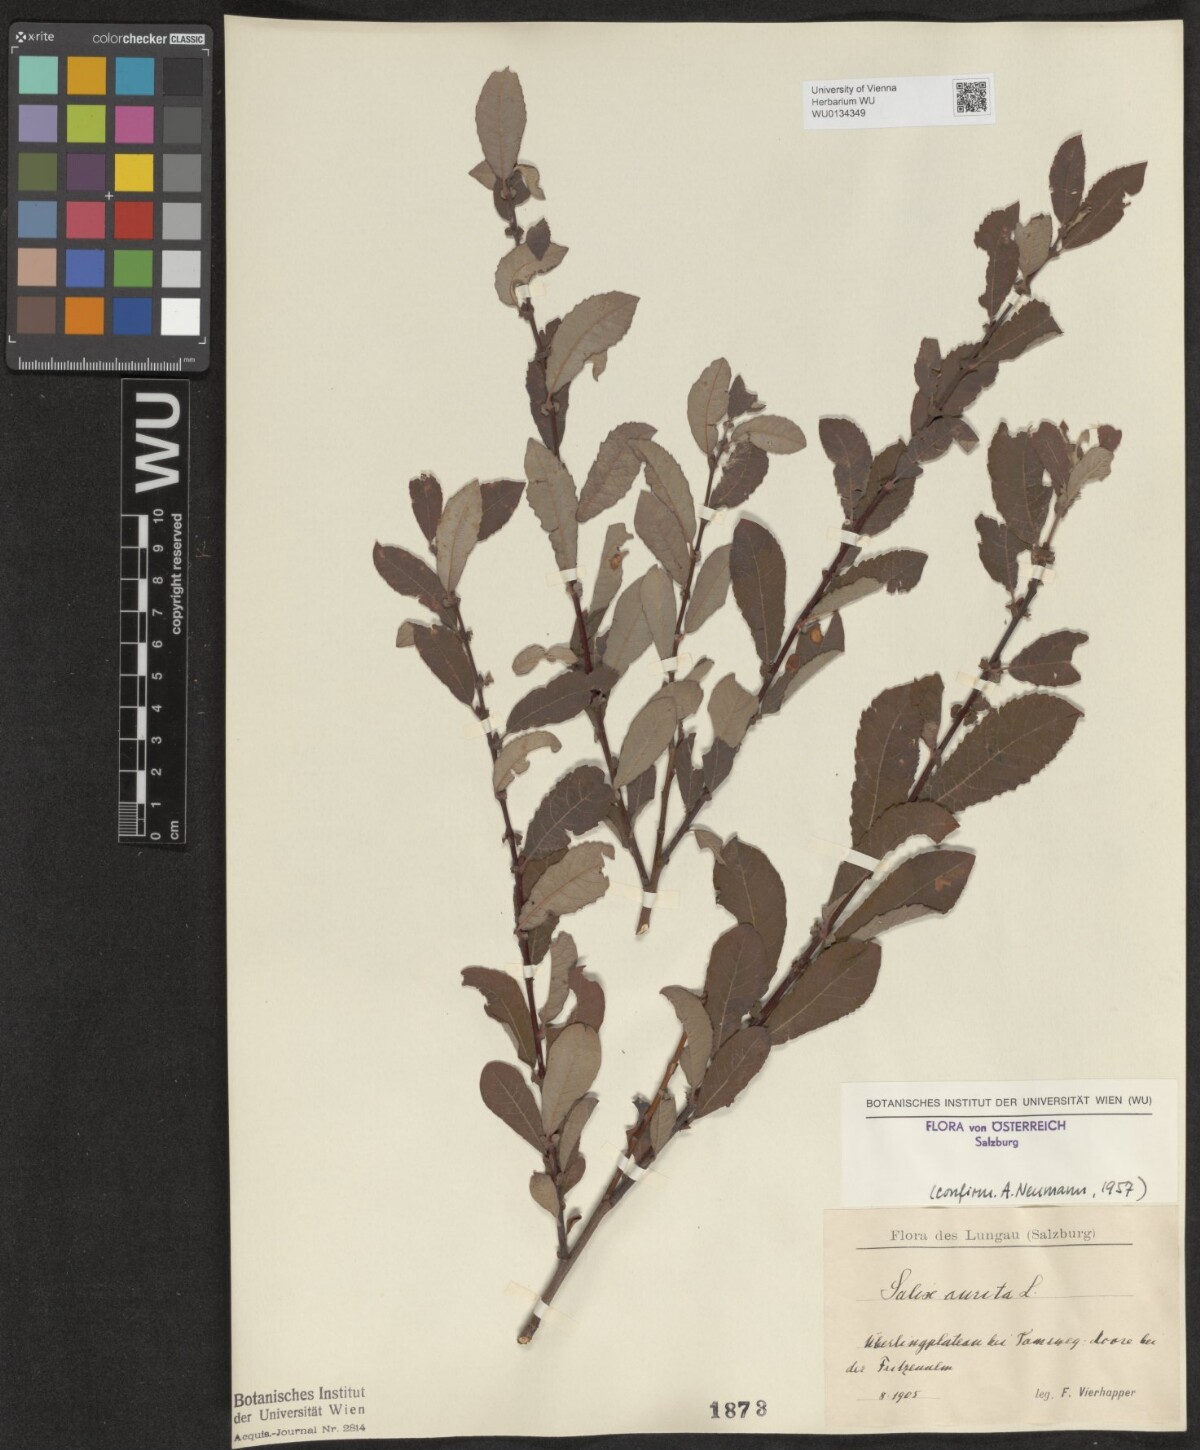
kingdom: Plantae
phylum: Tracheophyta
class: Magnoliopsida
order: Malpighiales
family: Salicaceae
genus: Salix
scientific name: Salix aurita
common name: Eared willow
